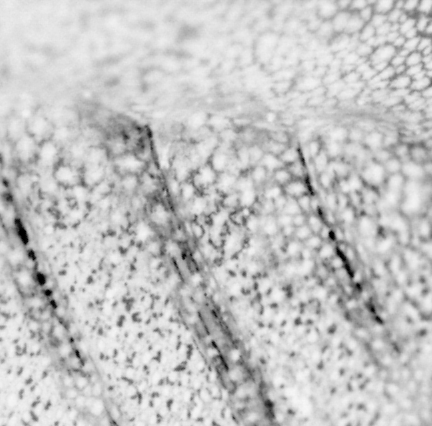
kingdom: Animalia
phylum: Chordata
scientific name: Chordata
